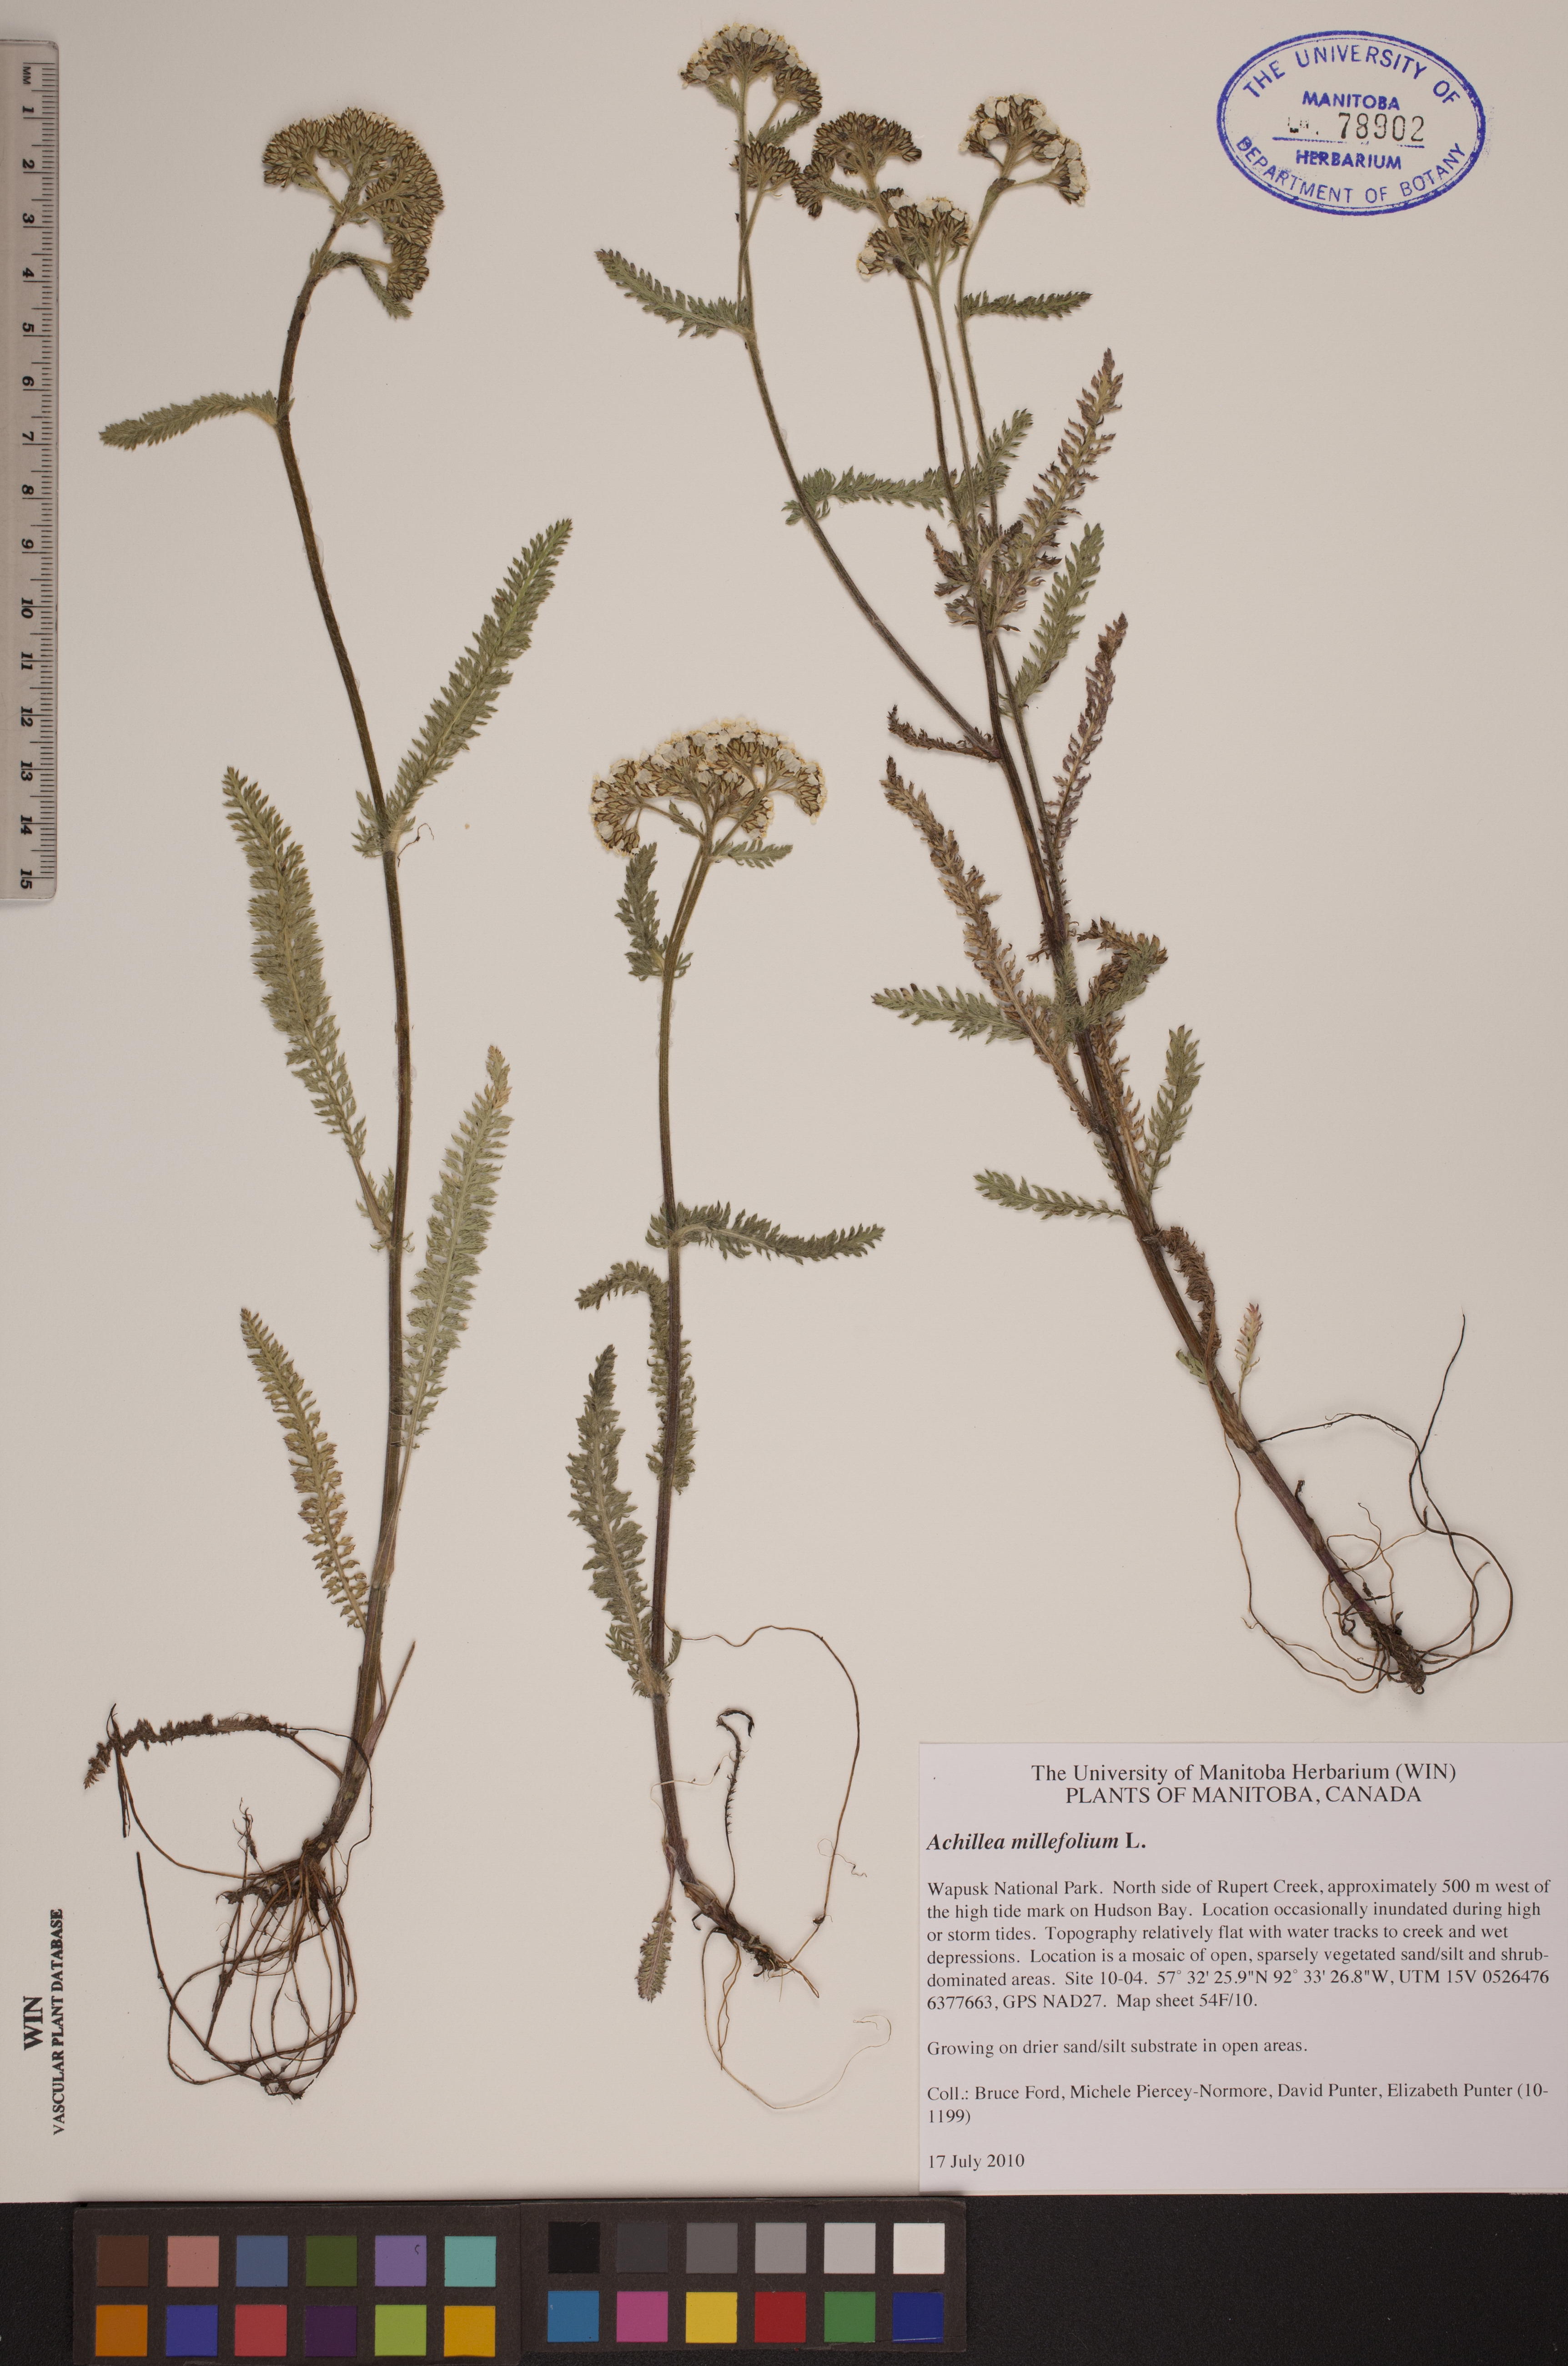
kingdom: Plantae
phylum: Tracheophyta
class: Magnoliopsida
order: Asterales
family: Asteraceae
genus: Achillea
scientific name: Achillea millefolium
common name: Yarrow
